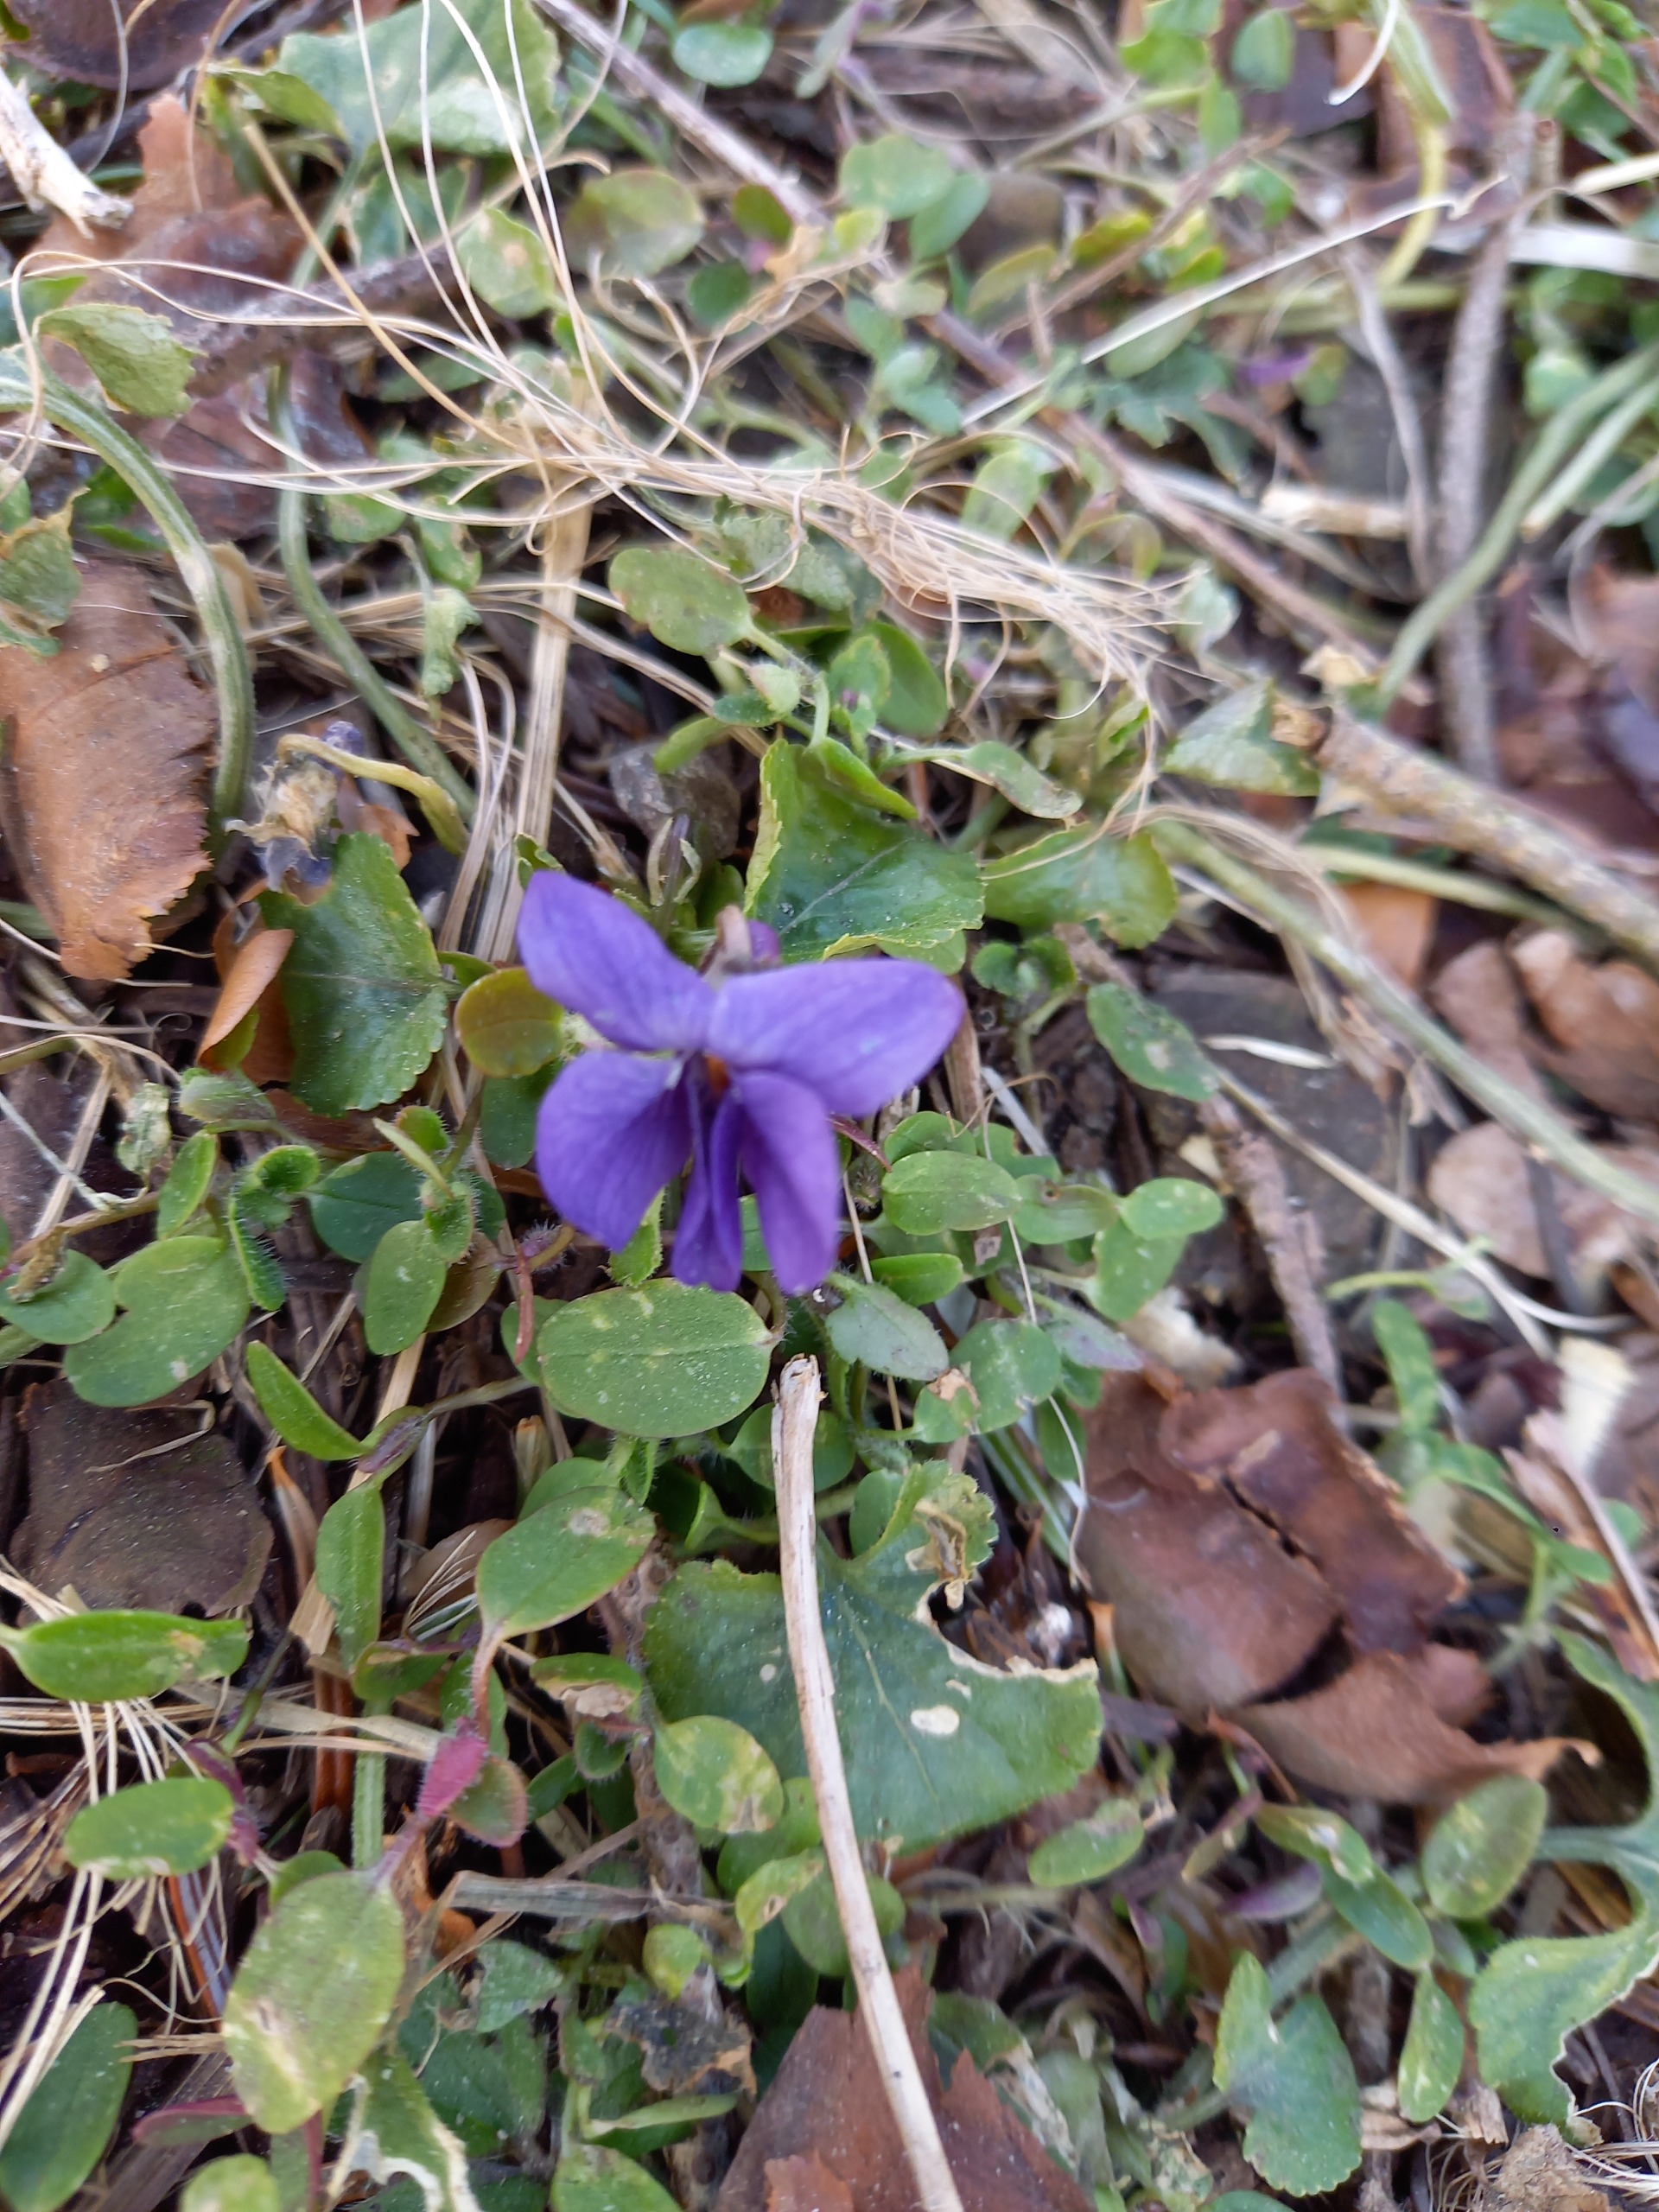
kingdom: Plantae
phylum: Tracheophyta
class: Magnoliopsida
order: Malpighiales
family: Violaceae
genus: Viola
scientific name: Viola odorata
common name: Marts-viol
